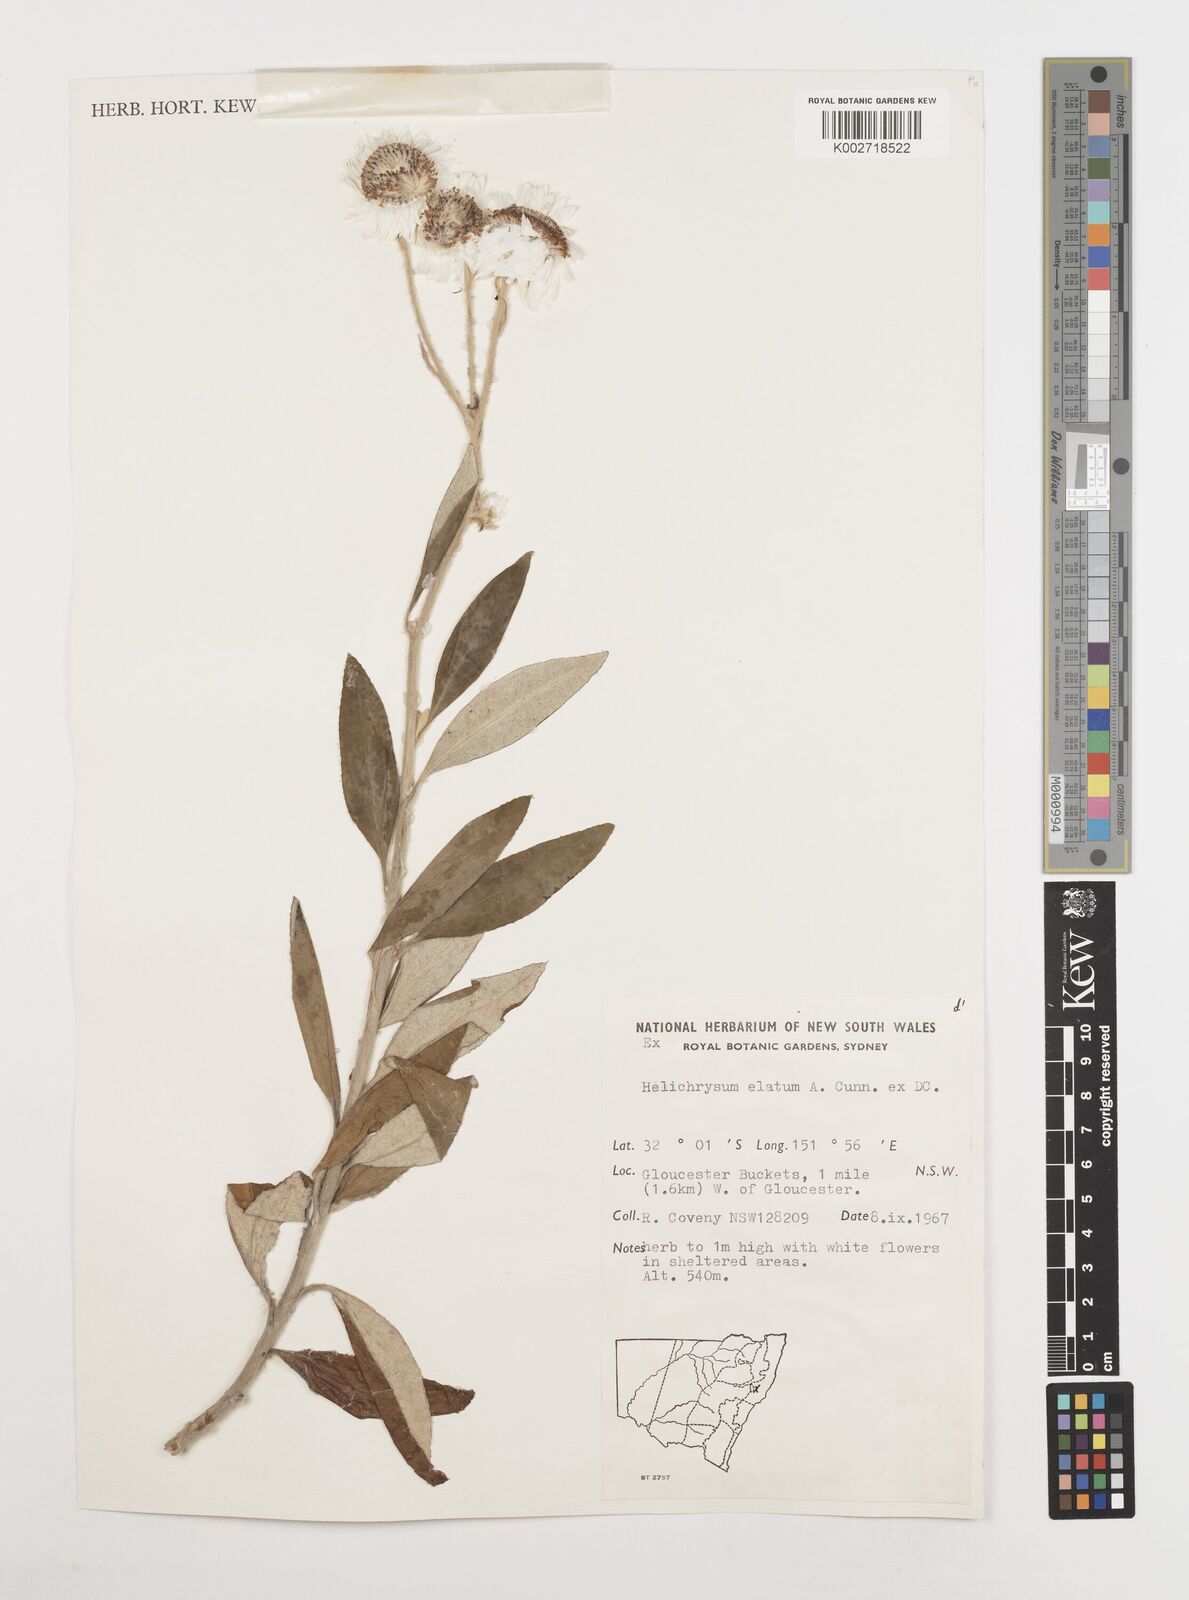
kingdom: Plantae
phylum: Tracheophyta
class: Magnoliopsida
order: Asterales
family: Asteraceae
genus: Leucozoma
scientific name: Leucozoma elatum
